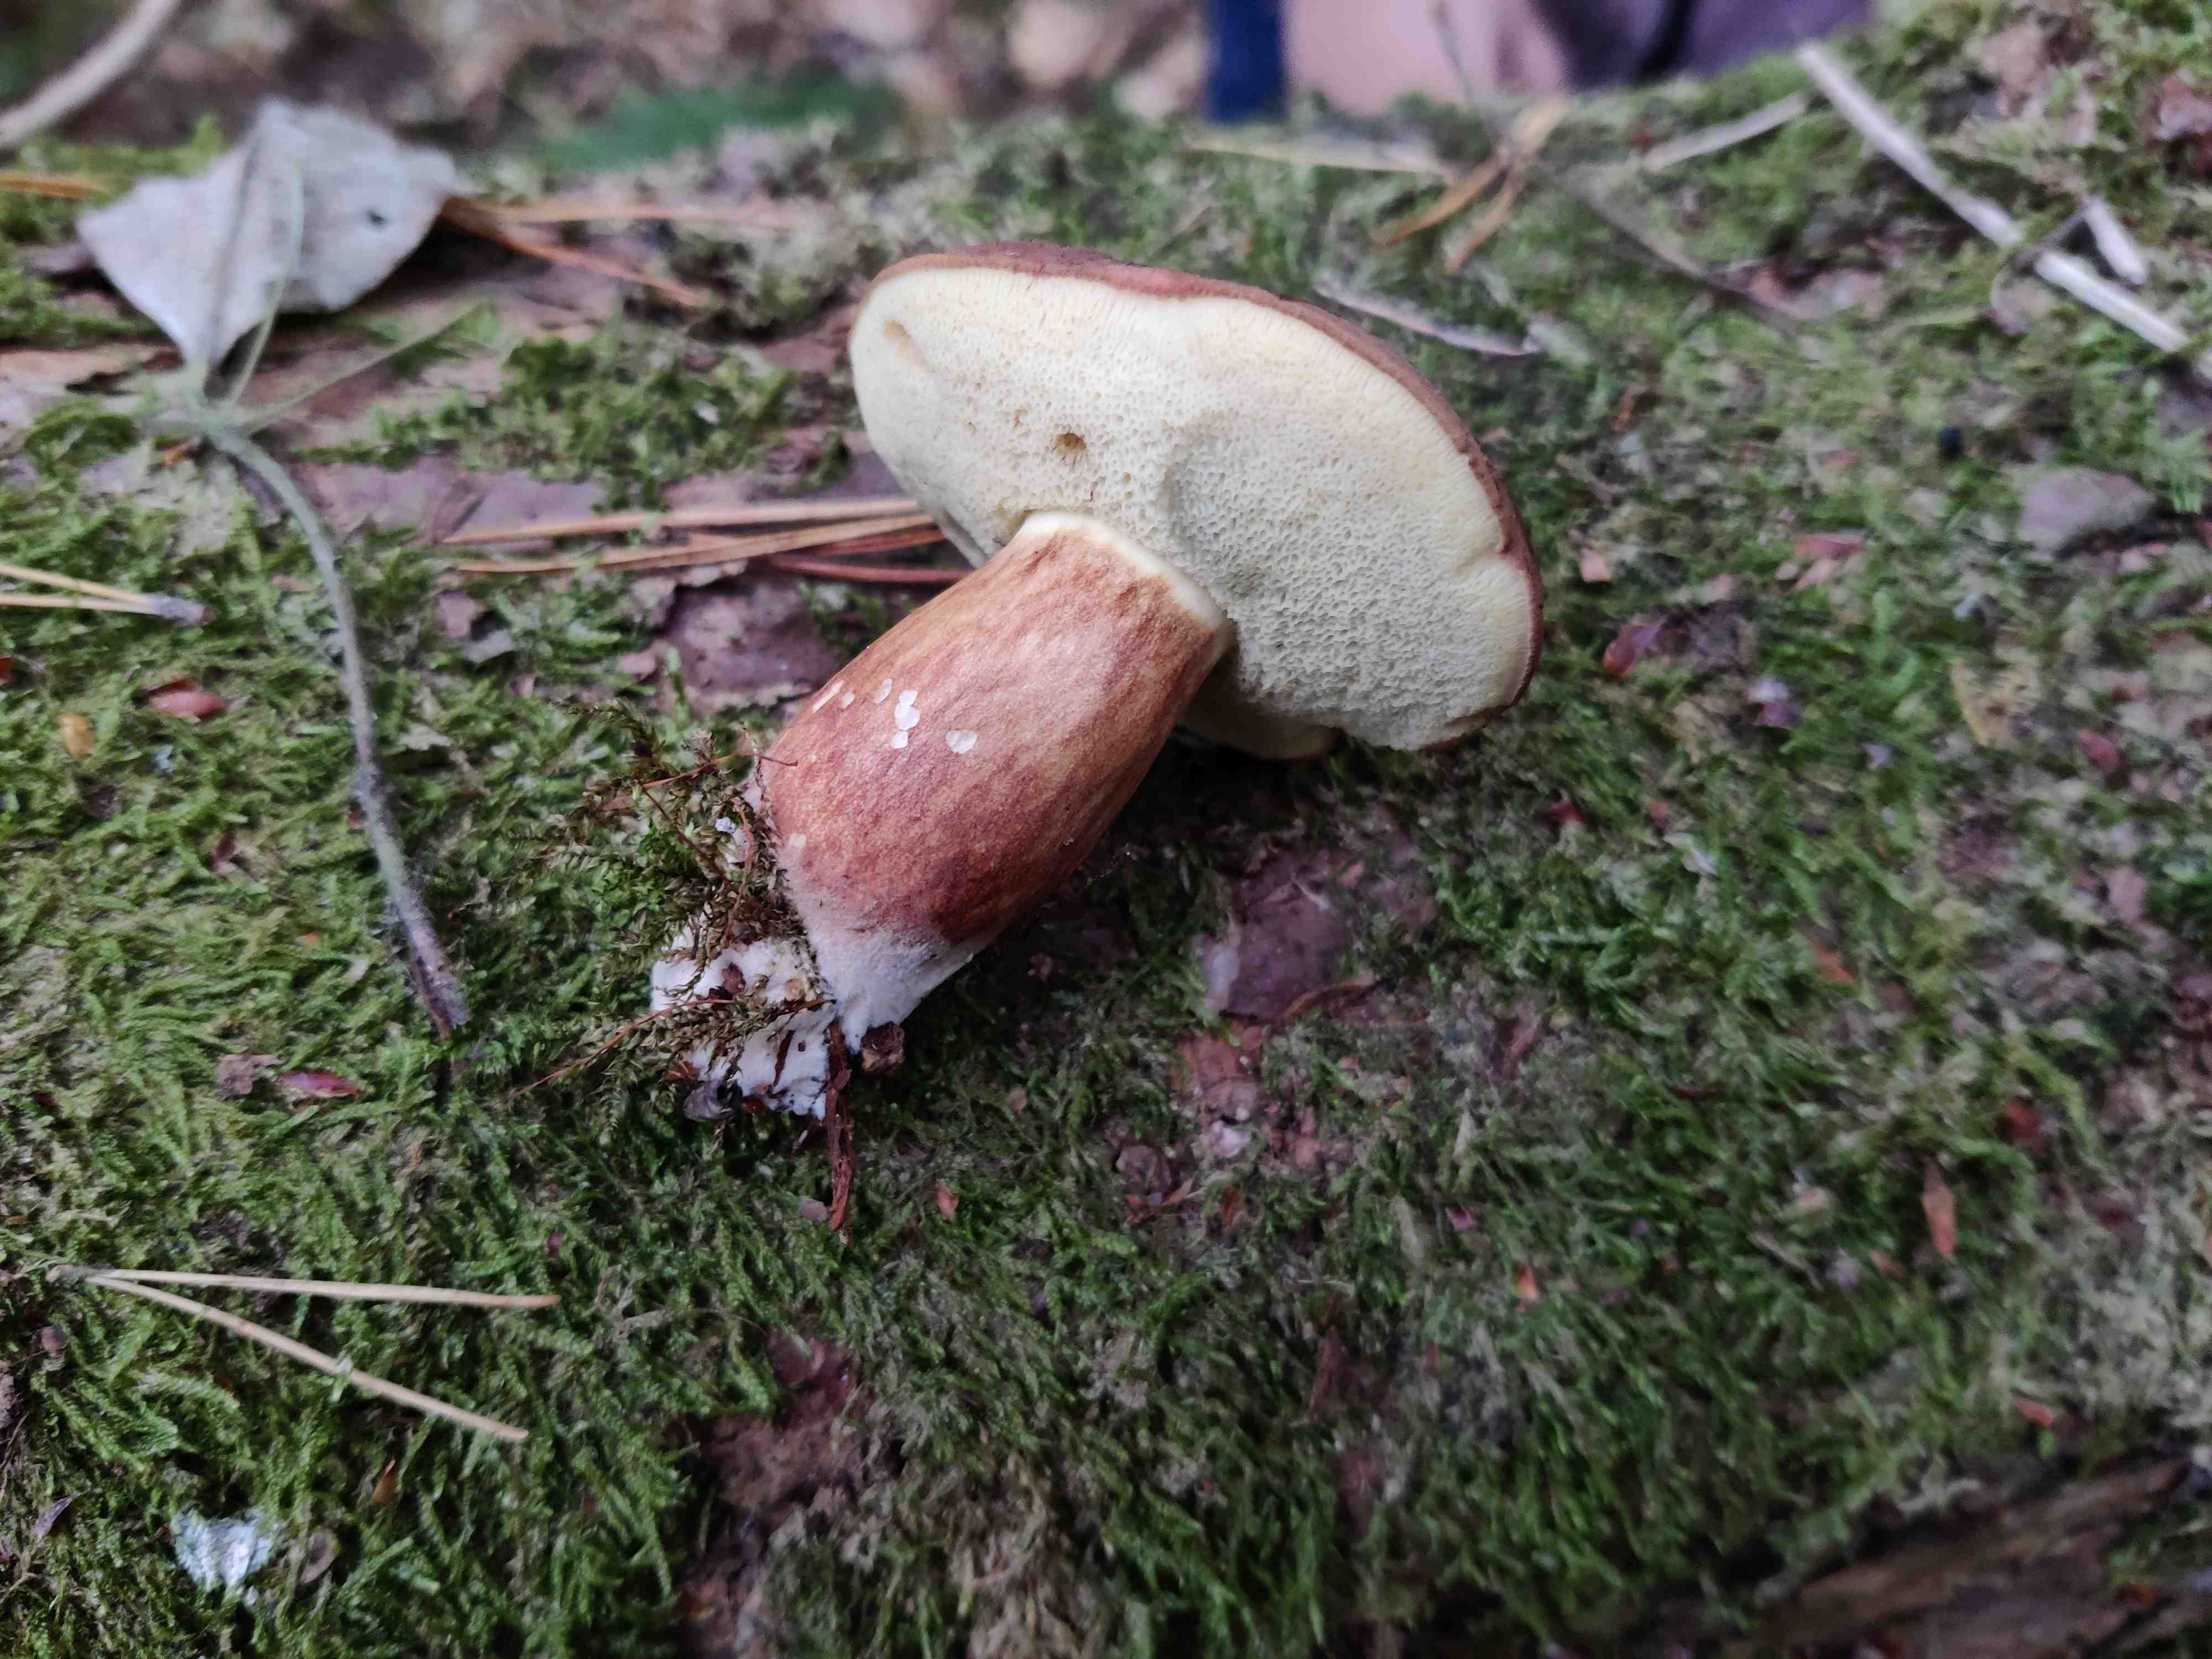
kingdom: Fungi
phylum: Basidiomycota
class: Agaricomycetes
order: Boletales
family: Boletaceae
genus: Imleria
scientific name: Imleria badia
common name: brunstokket rørhat
